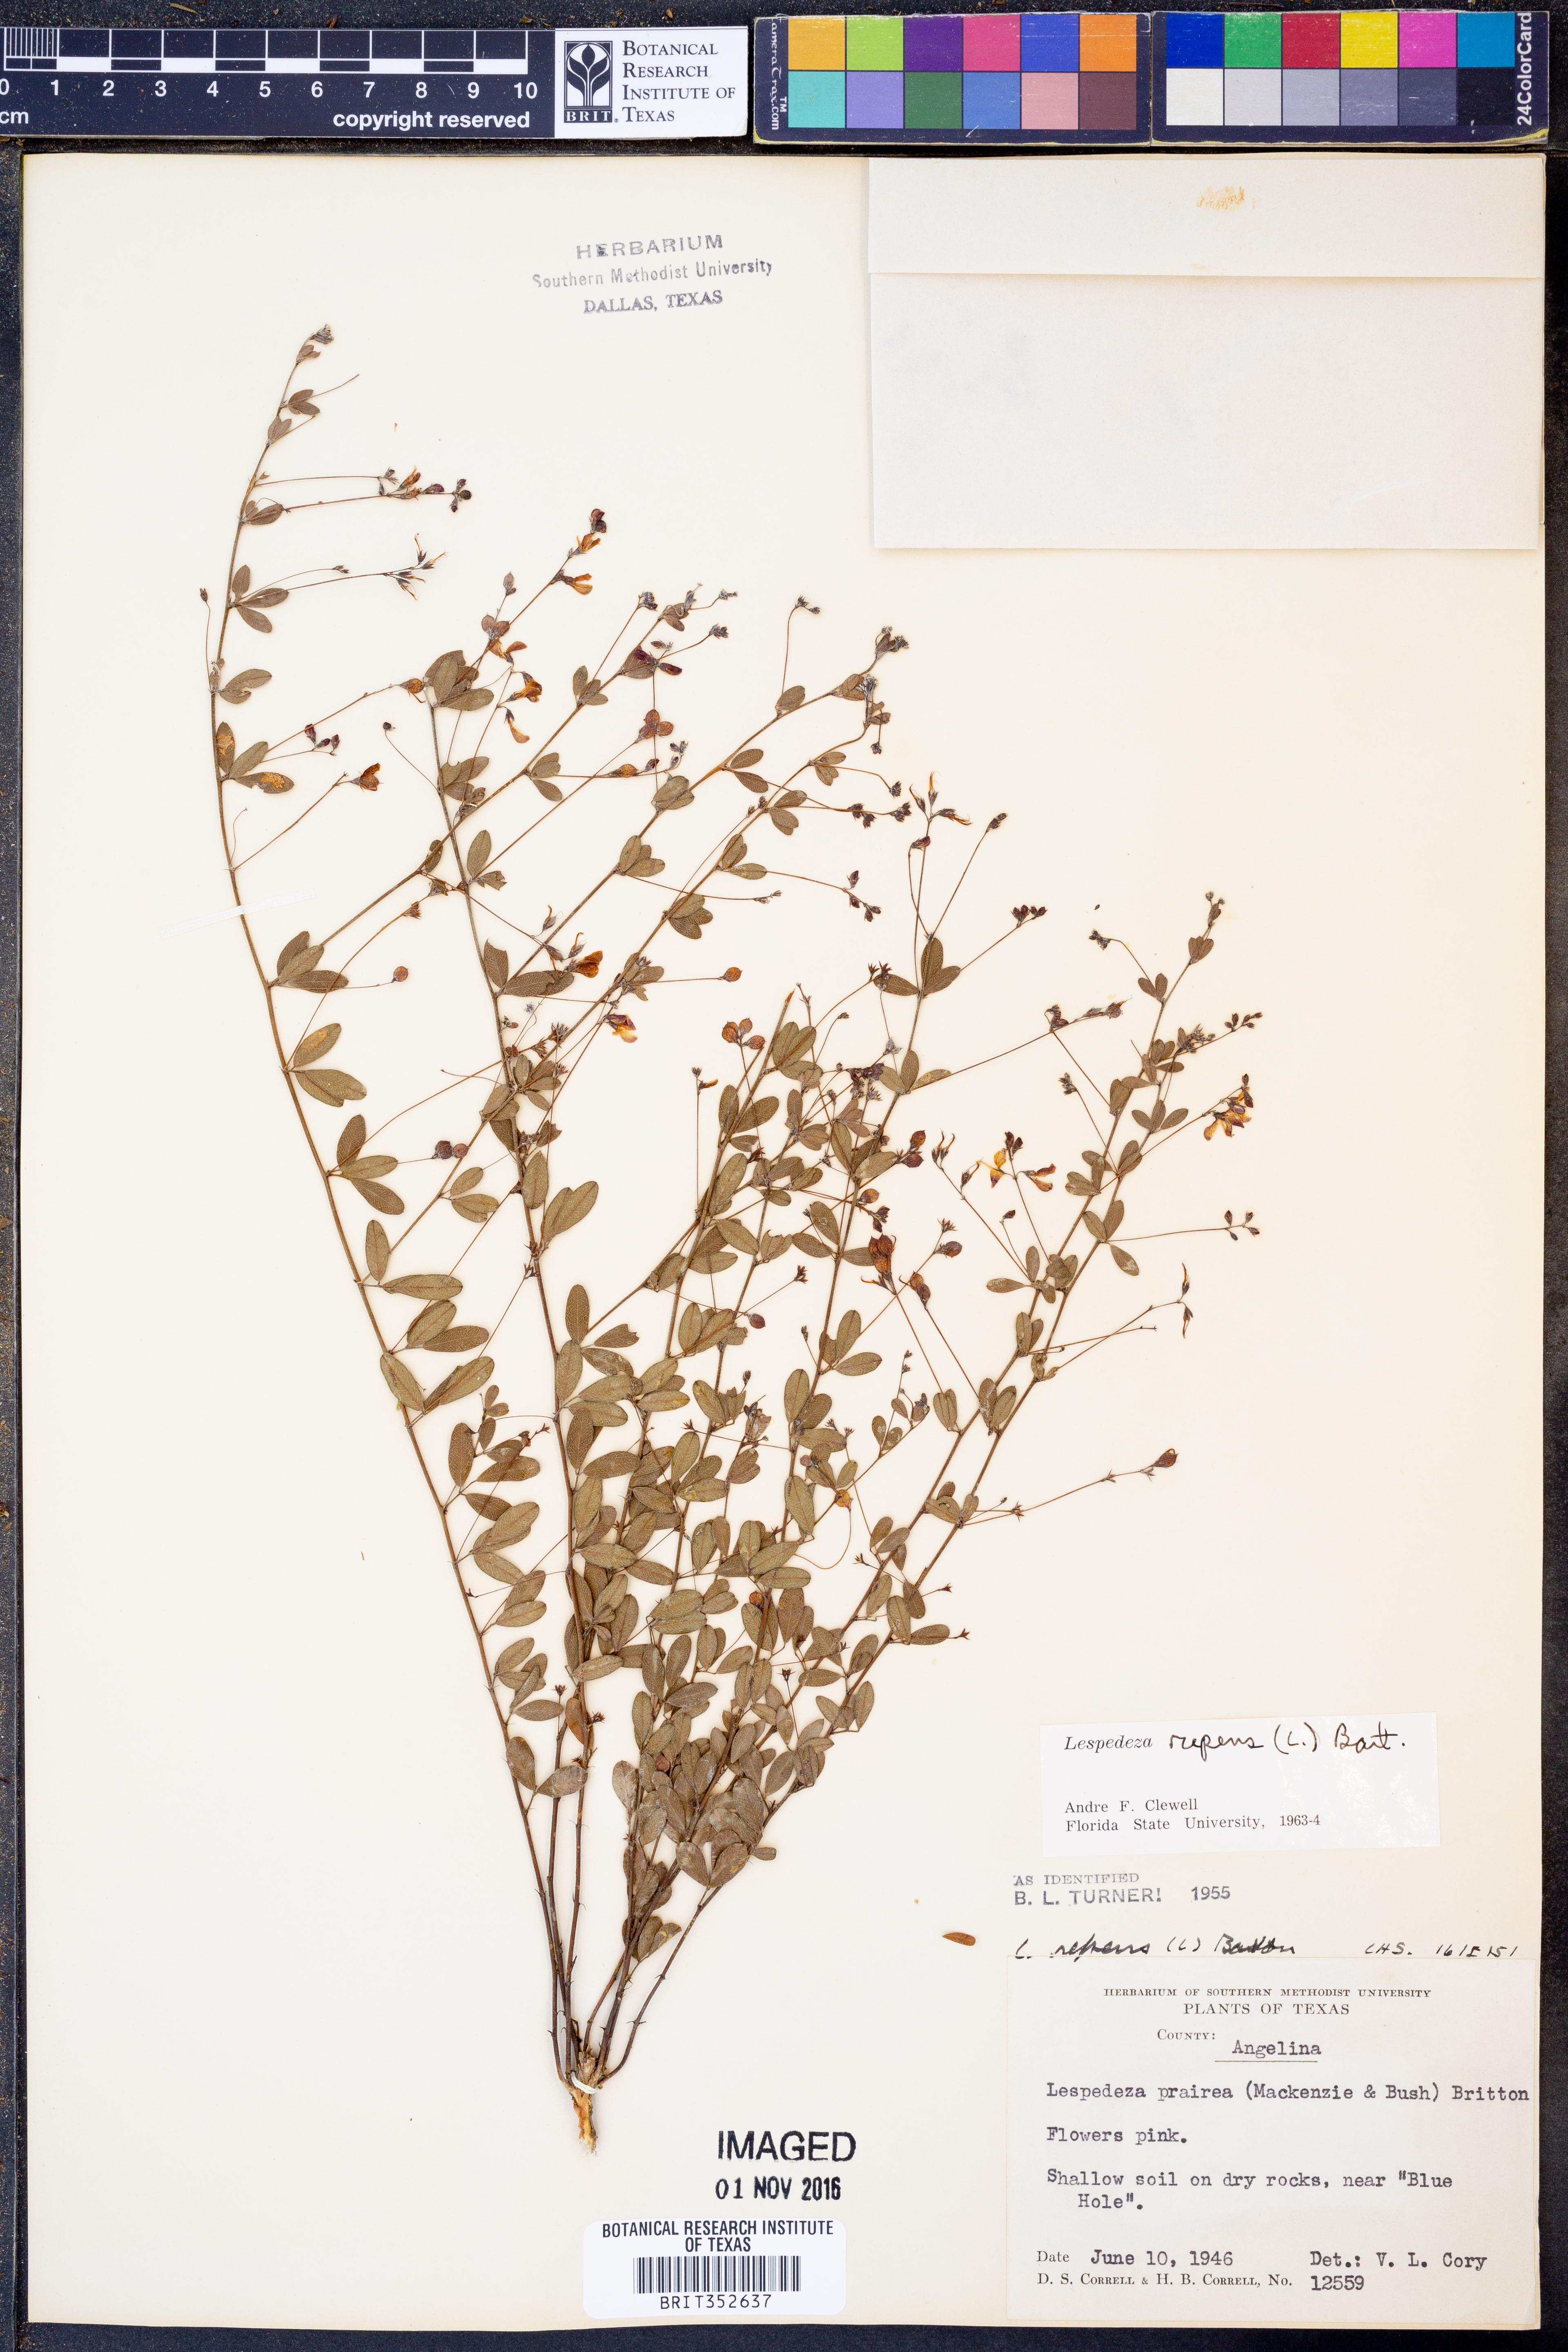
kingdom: Plantae
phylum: Tracheophyta
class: Magnoliopsida
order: Fabales
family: Fabaceae
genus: Lespedeza
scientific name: Lespedeza repens
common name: Creeping bush-clover
